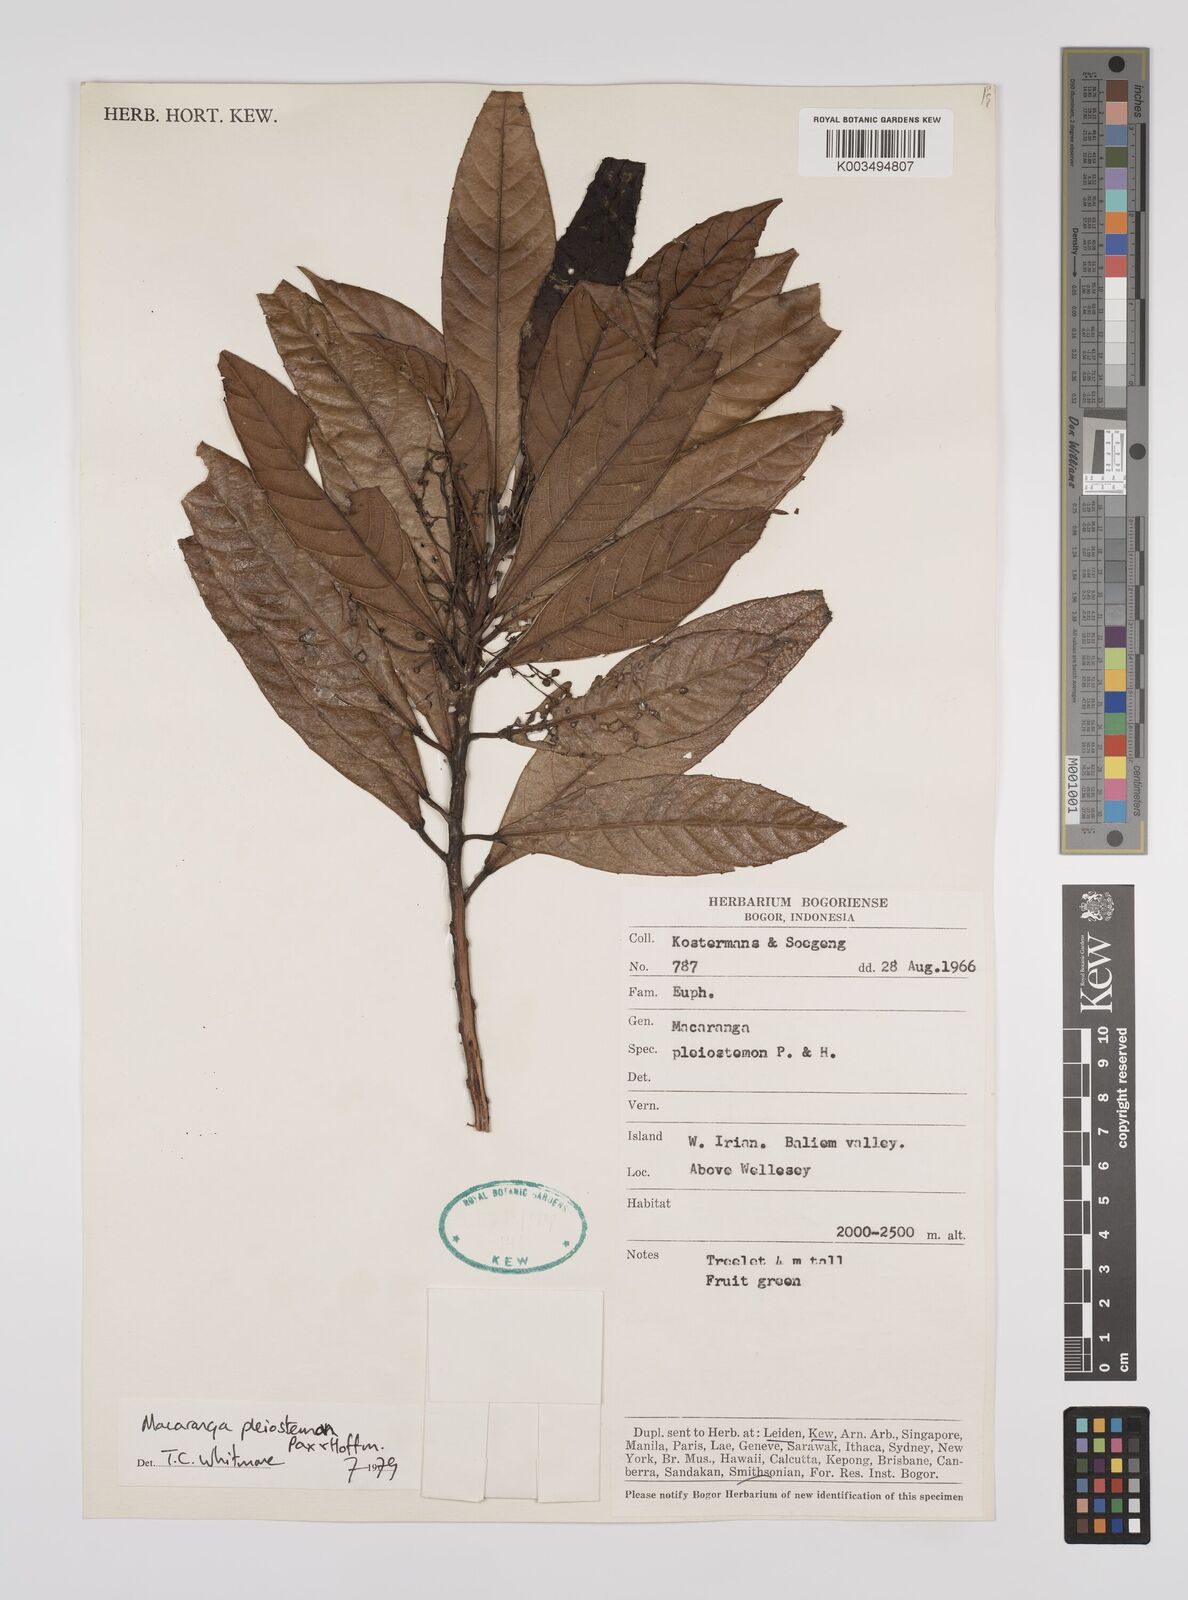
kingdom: Plantae
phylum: Tracheophyta
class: Magnoliopsida
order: Malpighiales
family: Euphorbiaceae
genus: Macaranga
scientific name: Macaranga pleiostemon
